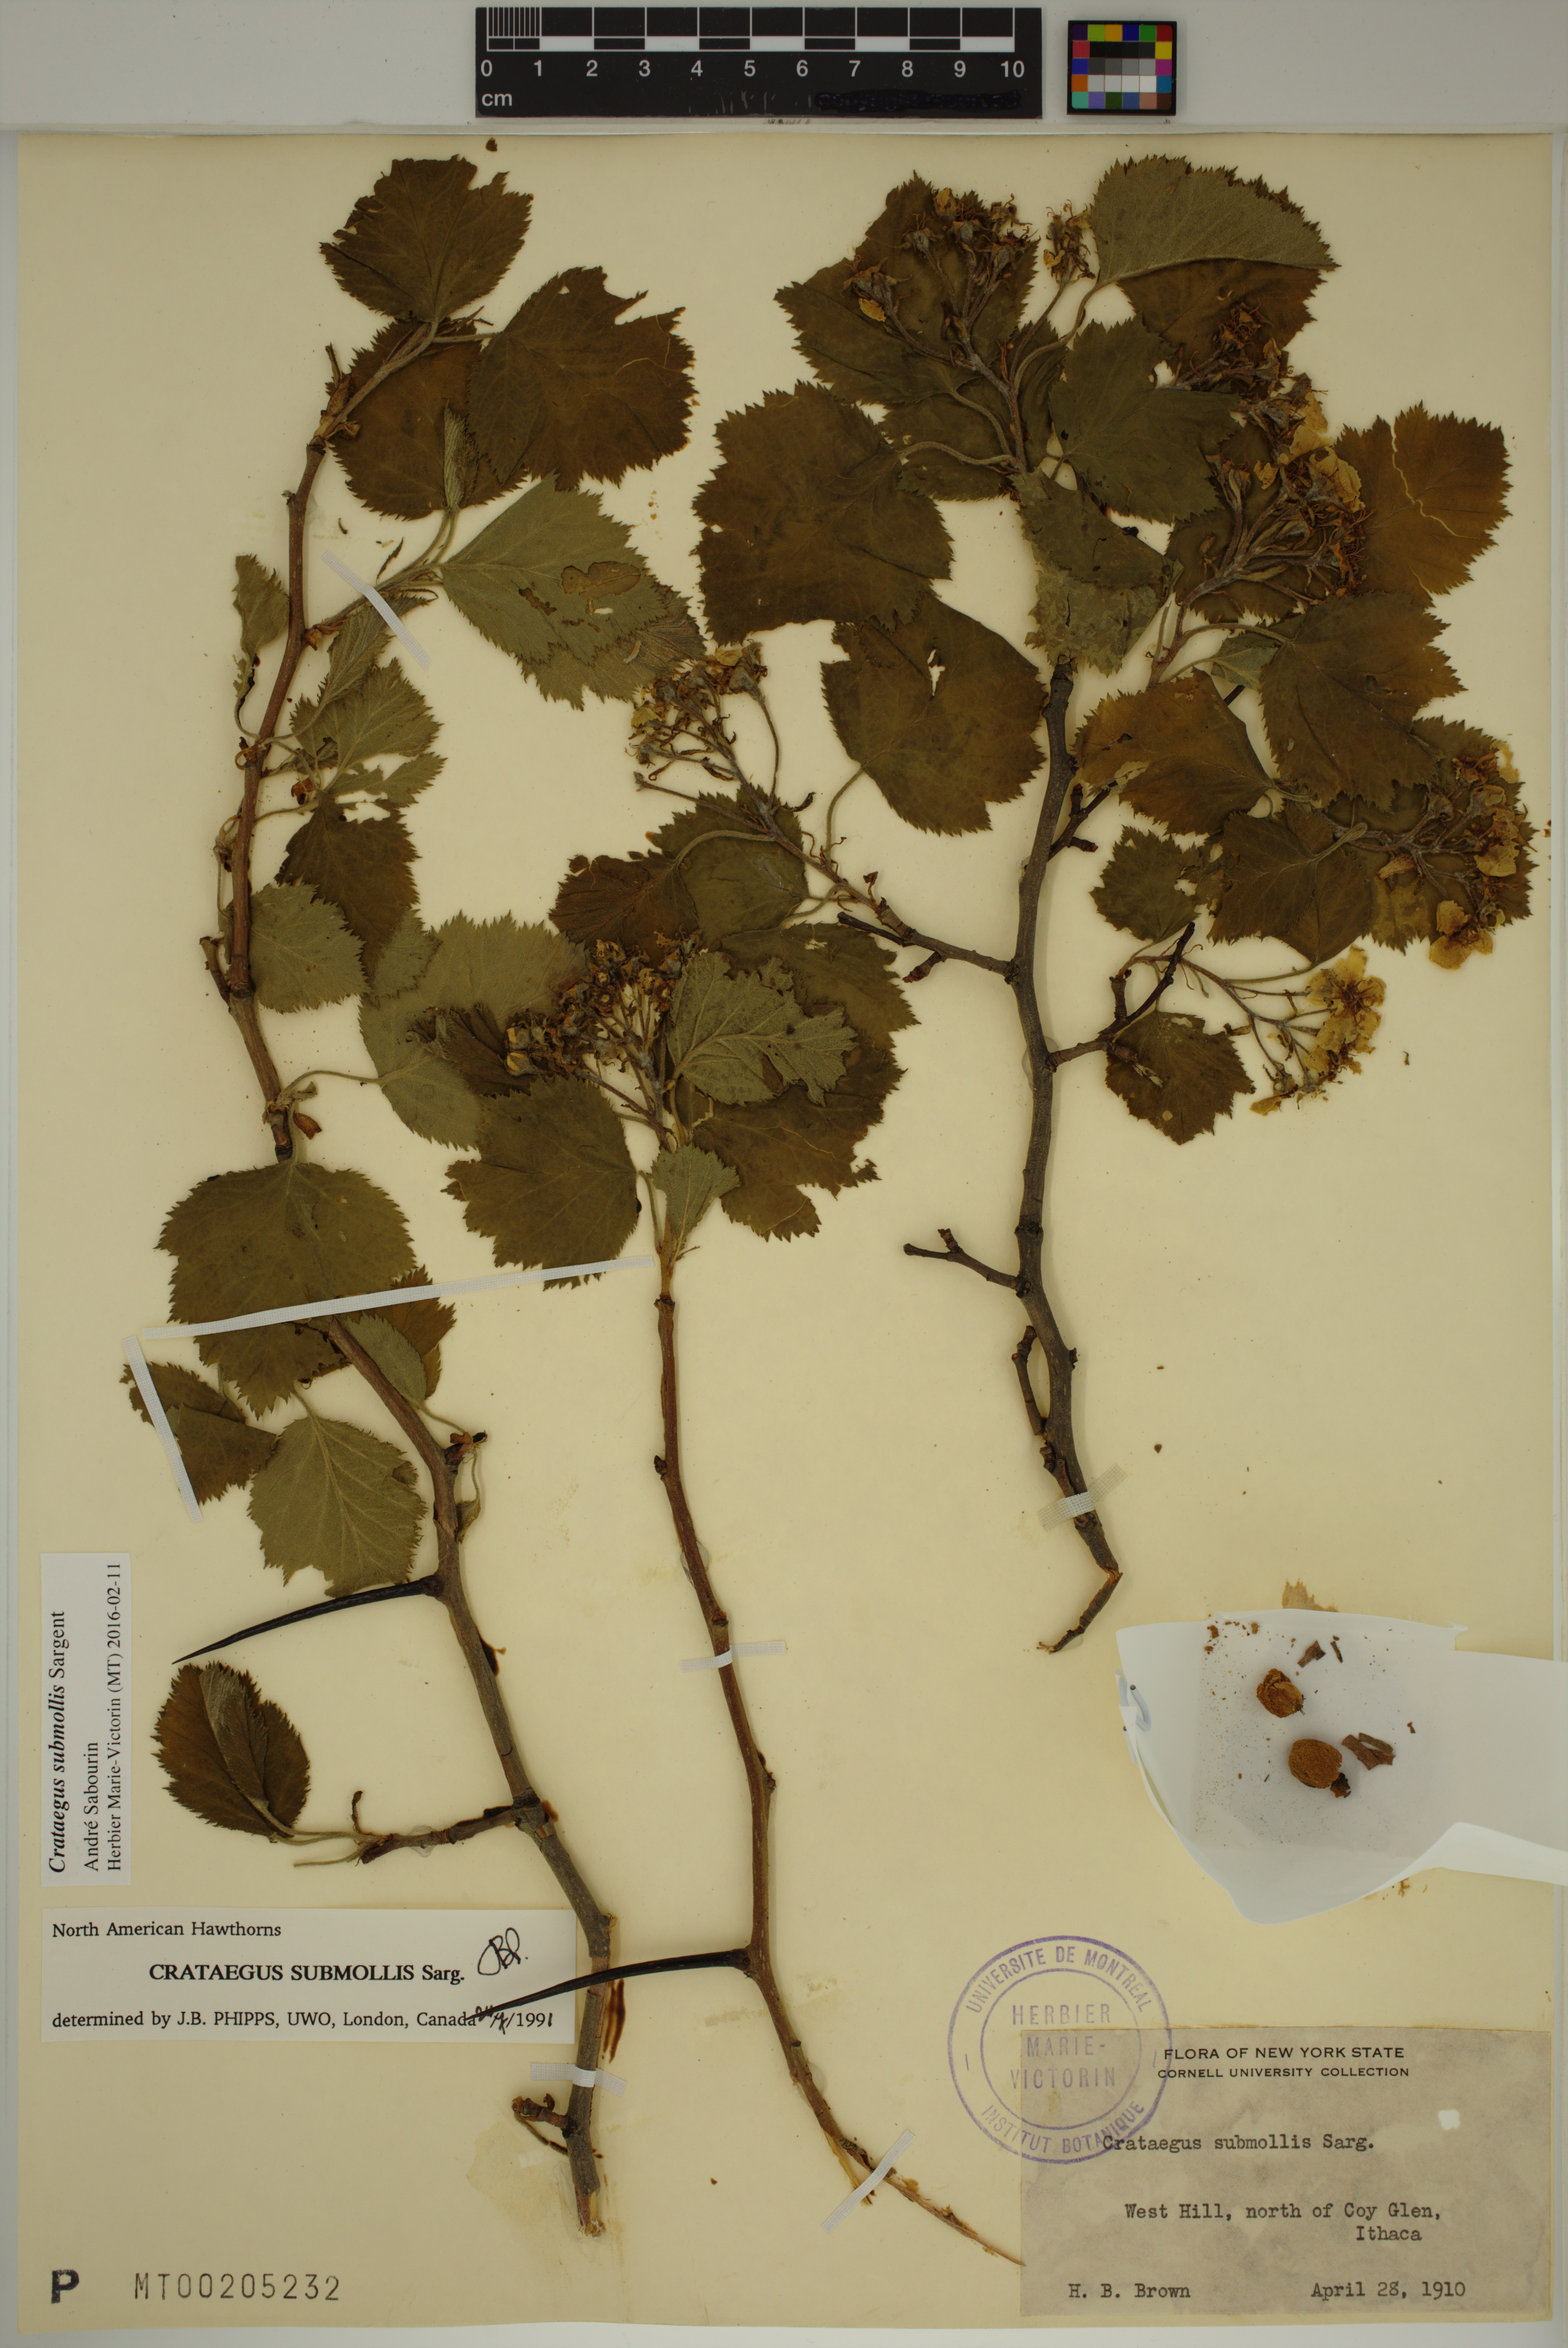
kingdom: Plantae
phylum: Tracheophyta
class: Magnoliopsida
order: Rosales
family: Rosaceae
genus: Crataegus
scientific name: Crataegus submollis
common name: Hairy cockspurthorn
